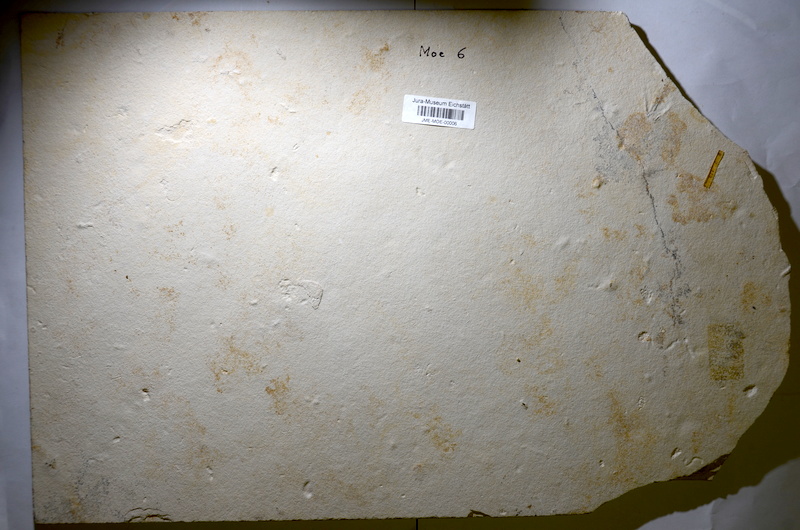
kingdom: Animalia
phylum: Chordata
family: Ankylophoridae
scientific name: Ankylophoridae
